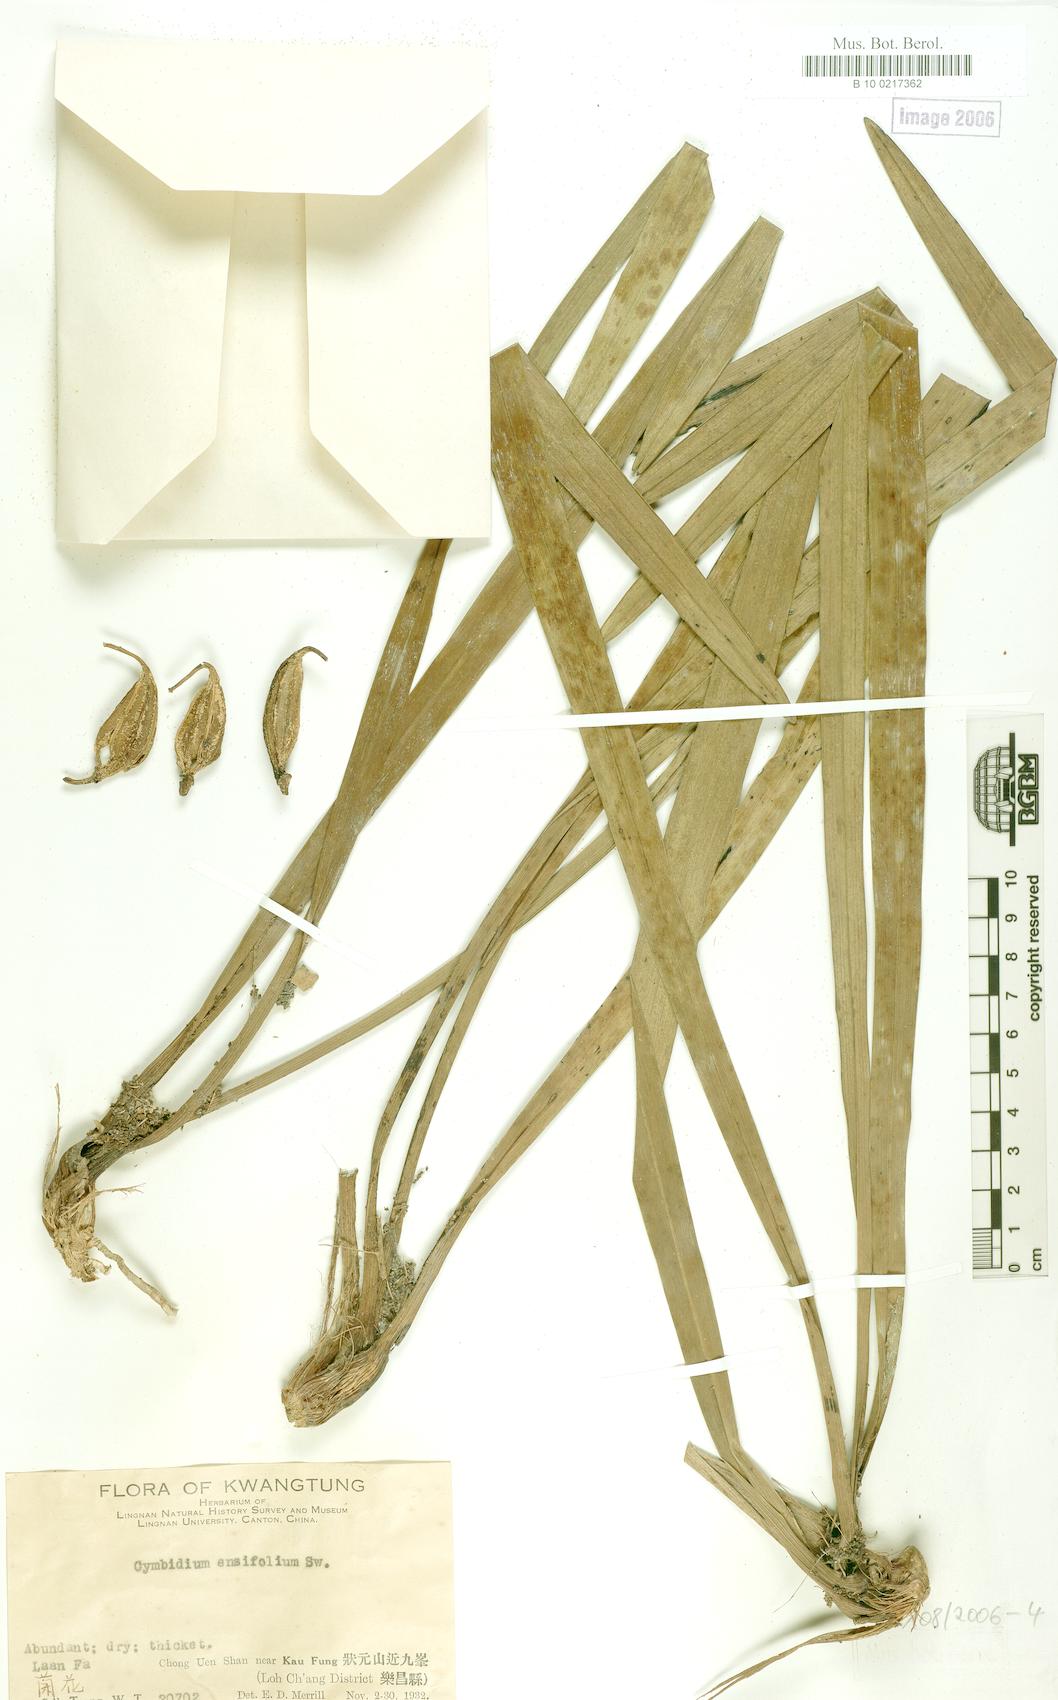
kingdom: Plantae
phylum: Tracheophyta
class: Liliopsida
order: Asparagales
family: Orchidaceae
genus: Cymbidium
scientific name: Cymbidium ensifolium
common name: Fukien-orchid
